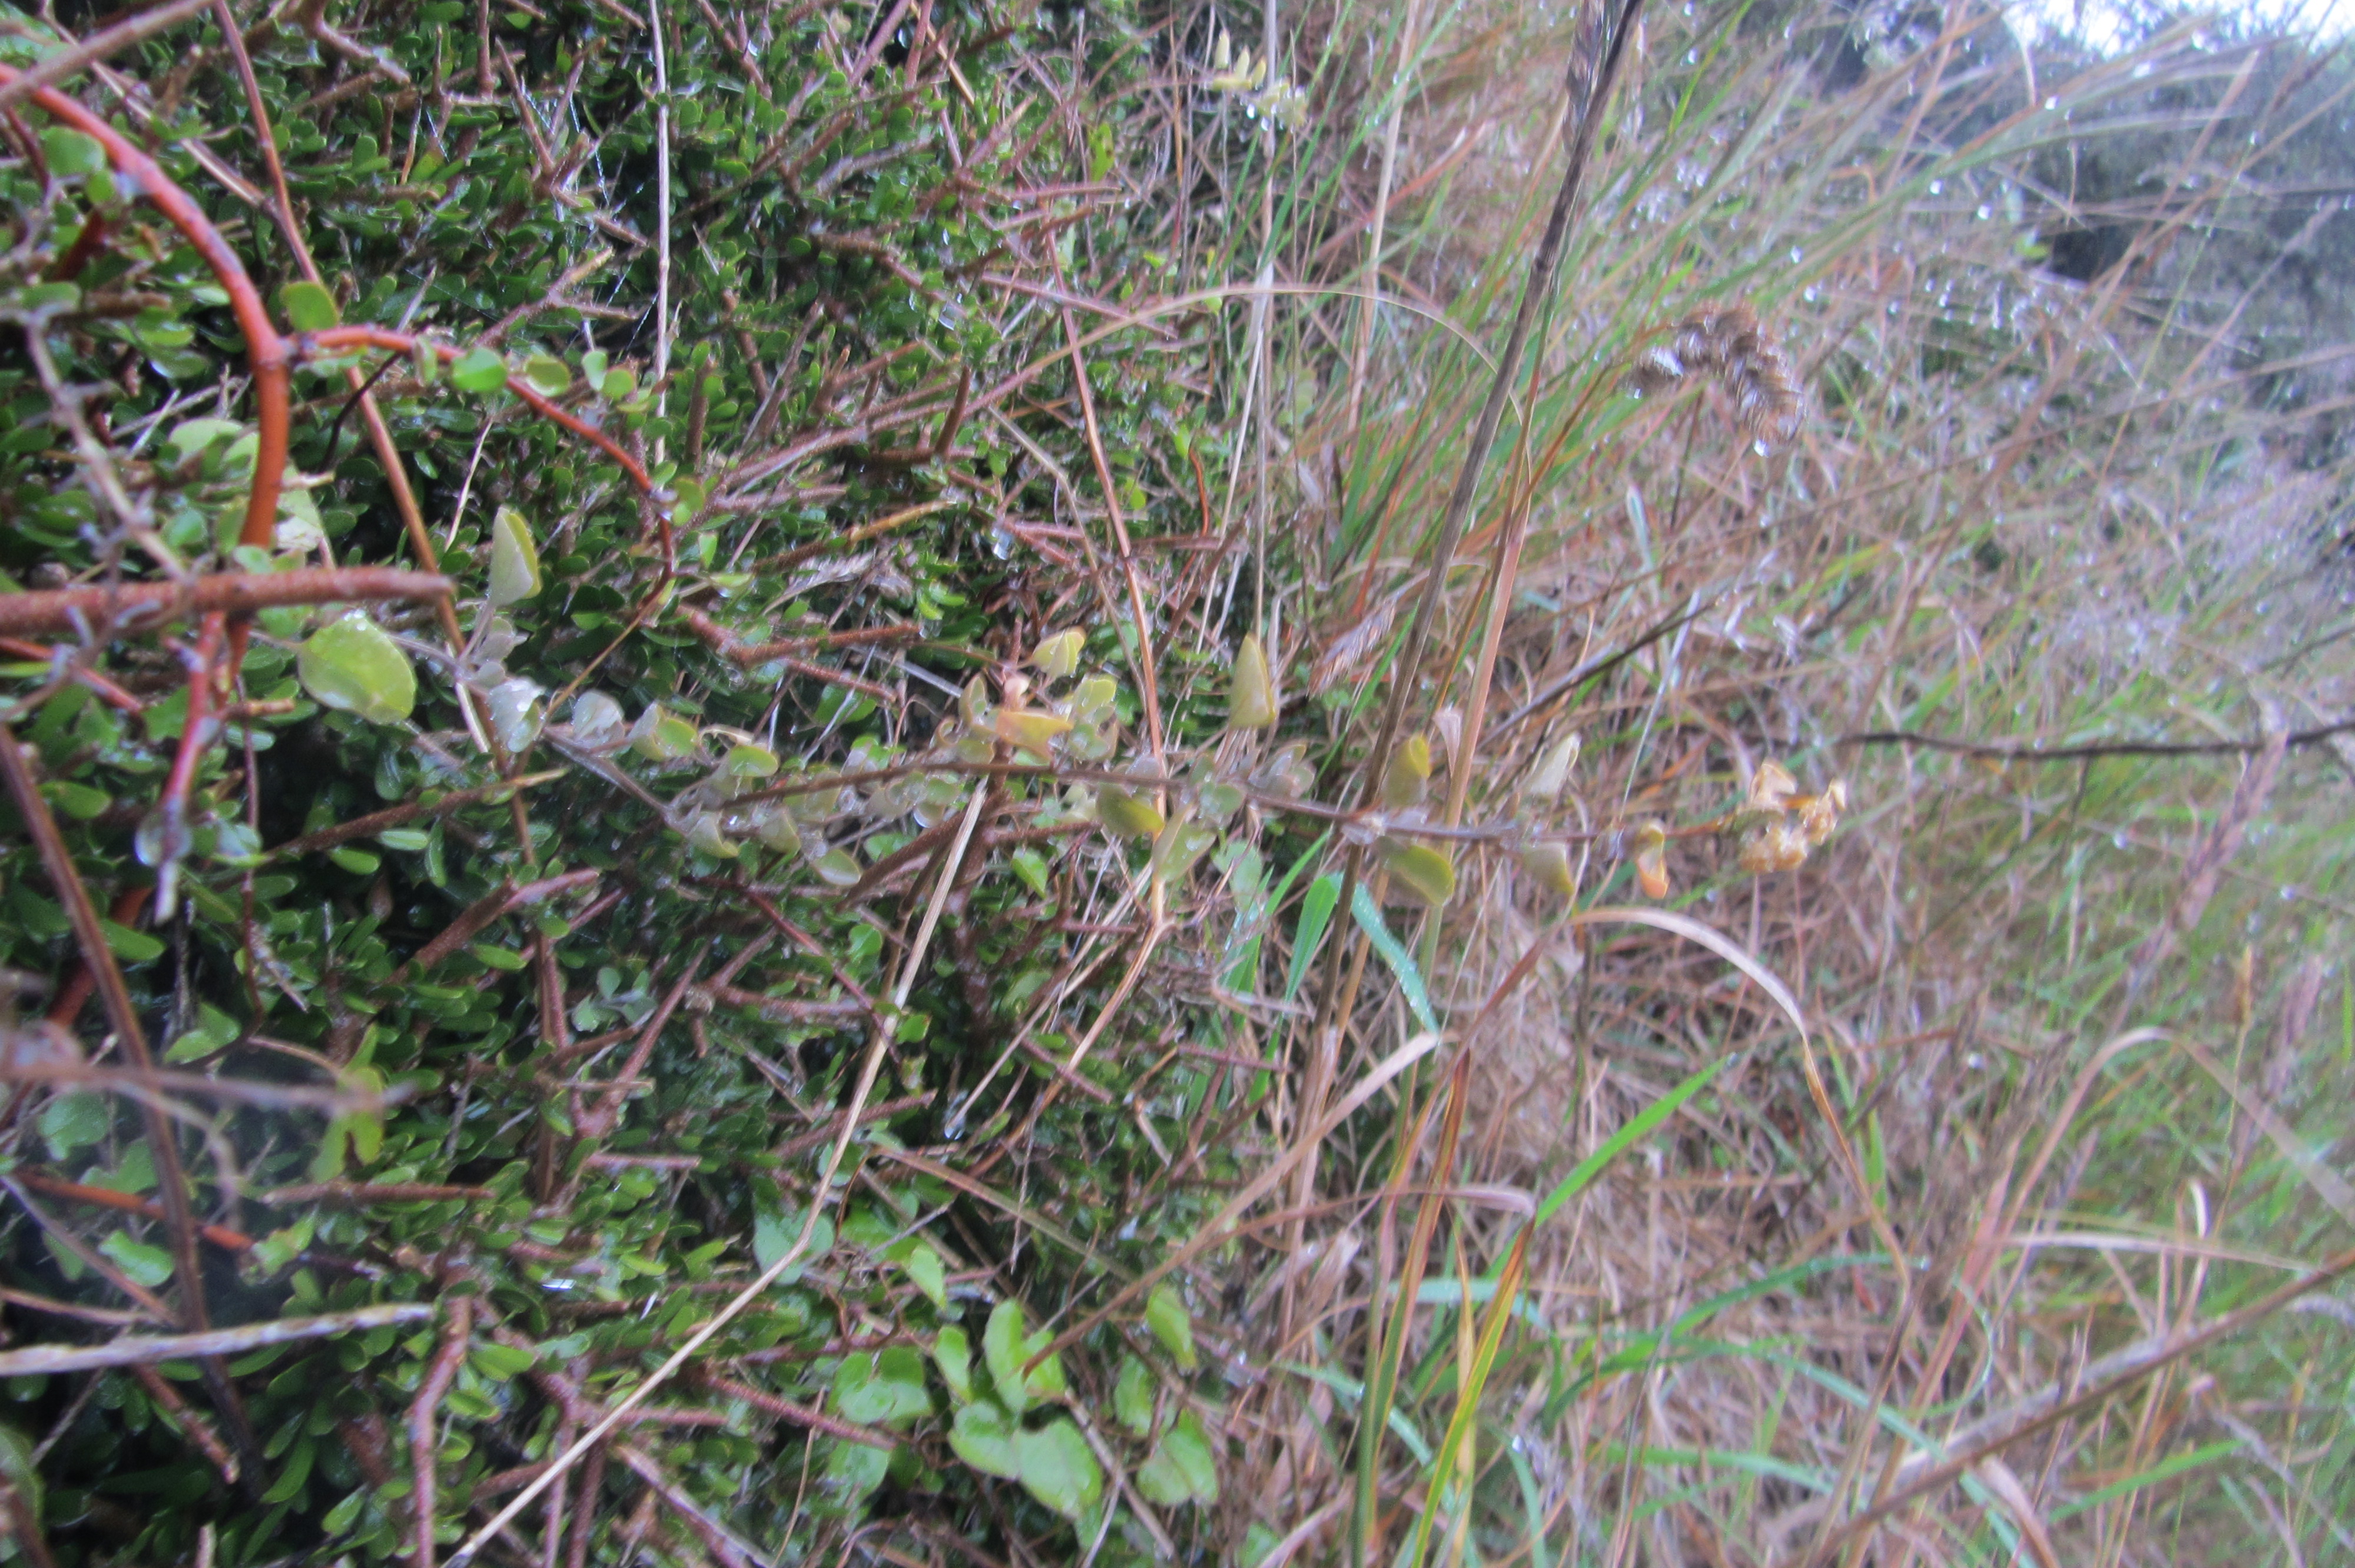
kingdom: Plantae
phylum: Tracheophyta
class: Magnoliopsida
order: Caryophyllales
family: Amaranthaceae
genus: Chenopodium
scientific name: Chenopodium allanii
